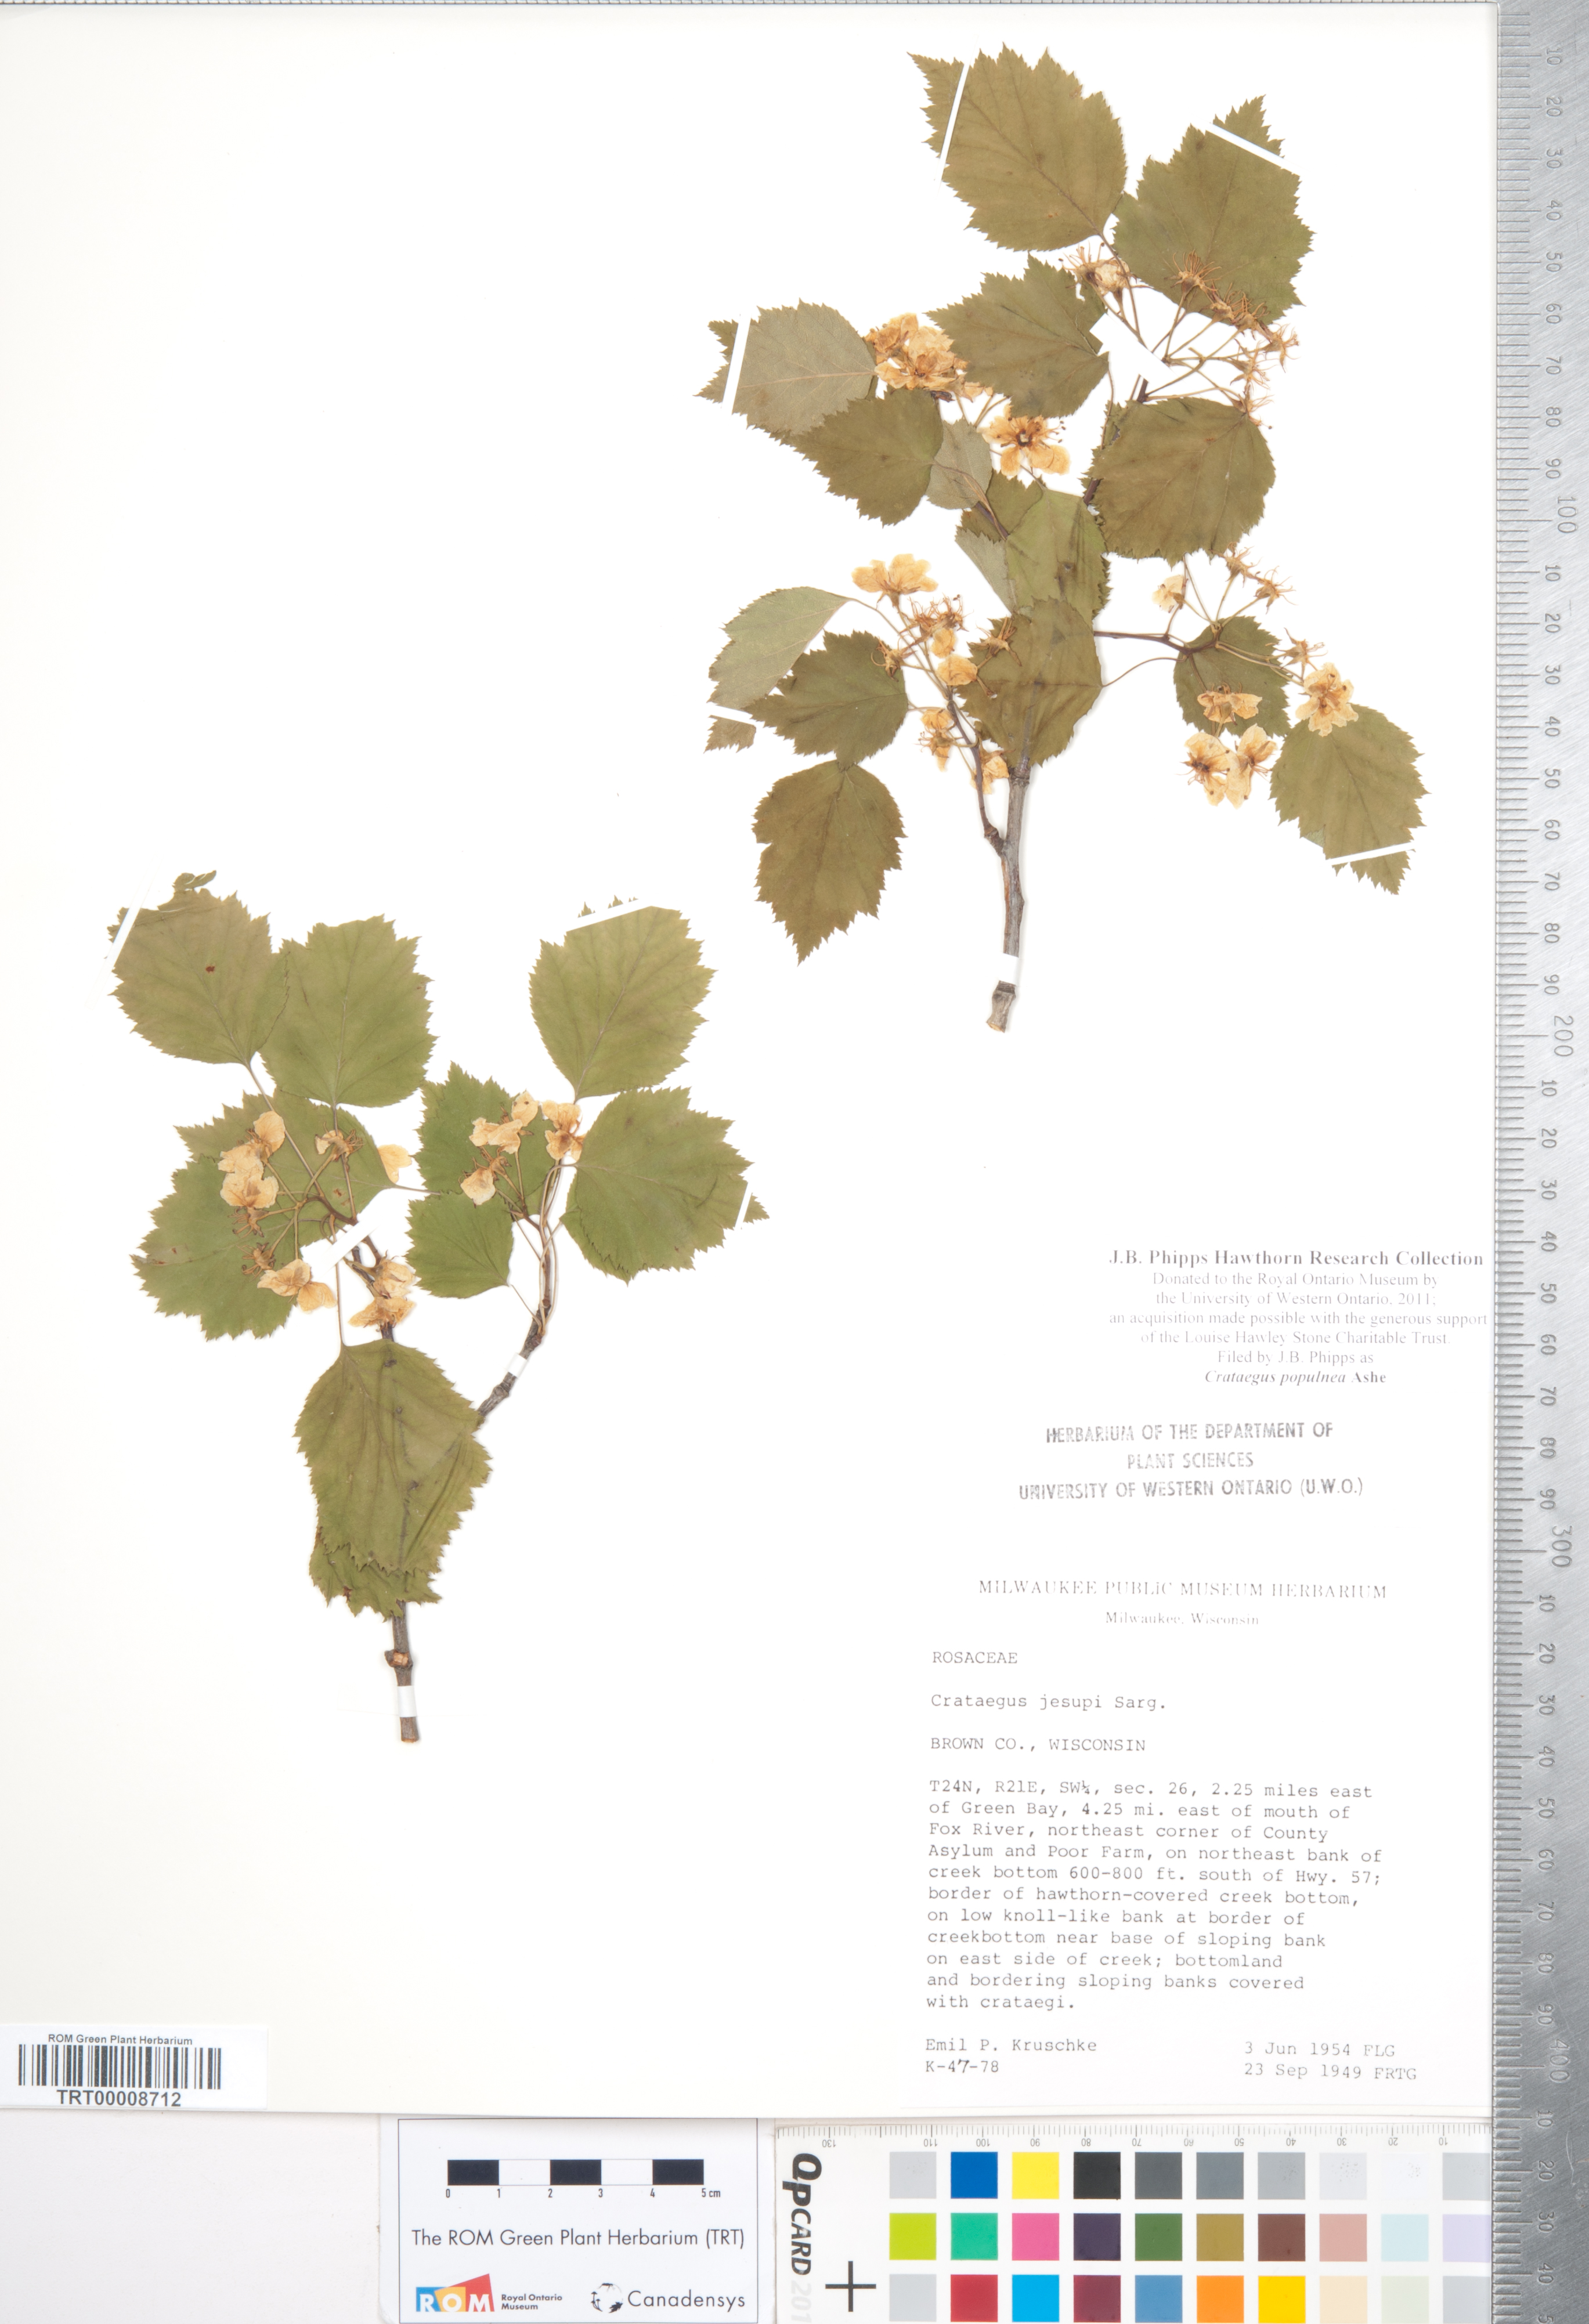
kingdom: Plantae
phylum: Tracheophyta
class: Magnoliopsida
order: Rosales
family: Rosaceae
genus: Crataegus
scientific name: Crataegus populnea
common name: Adorned hawthorn
